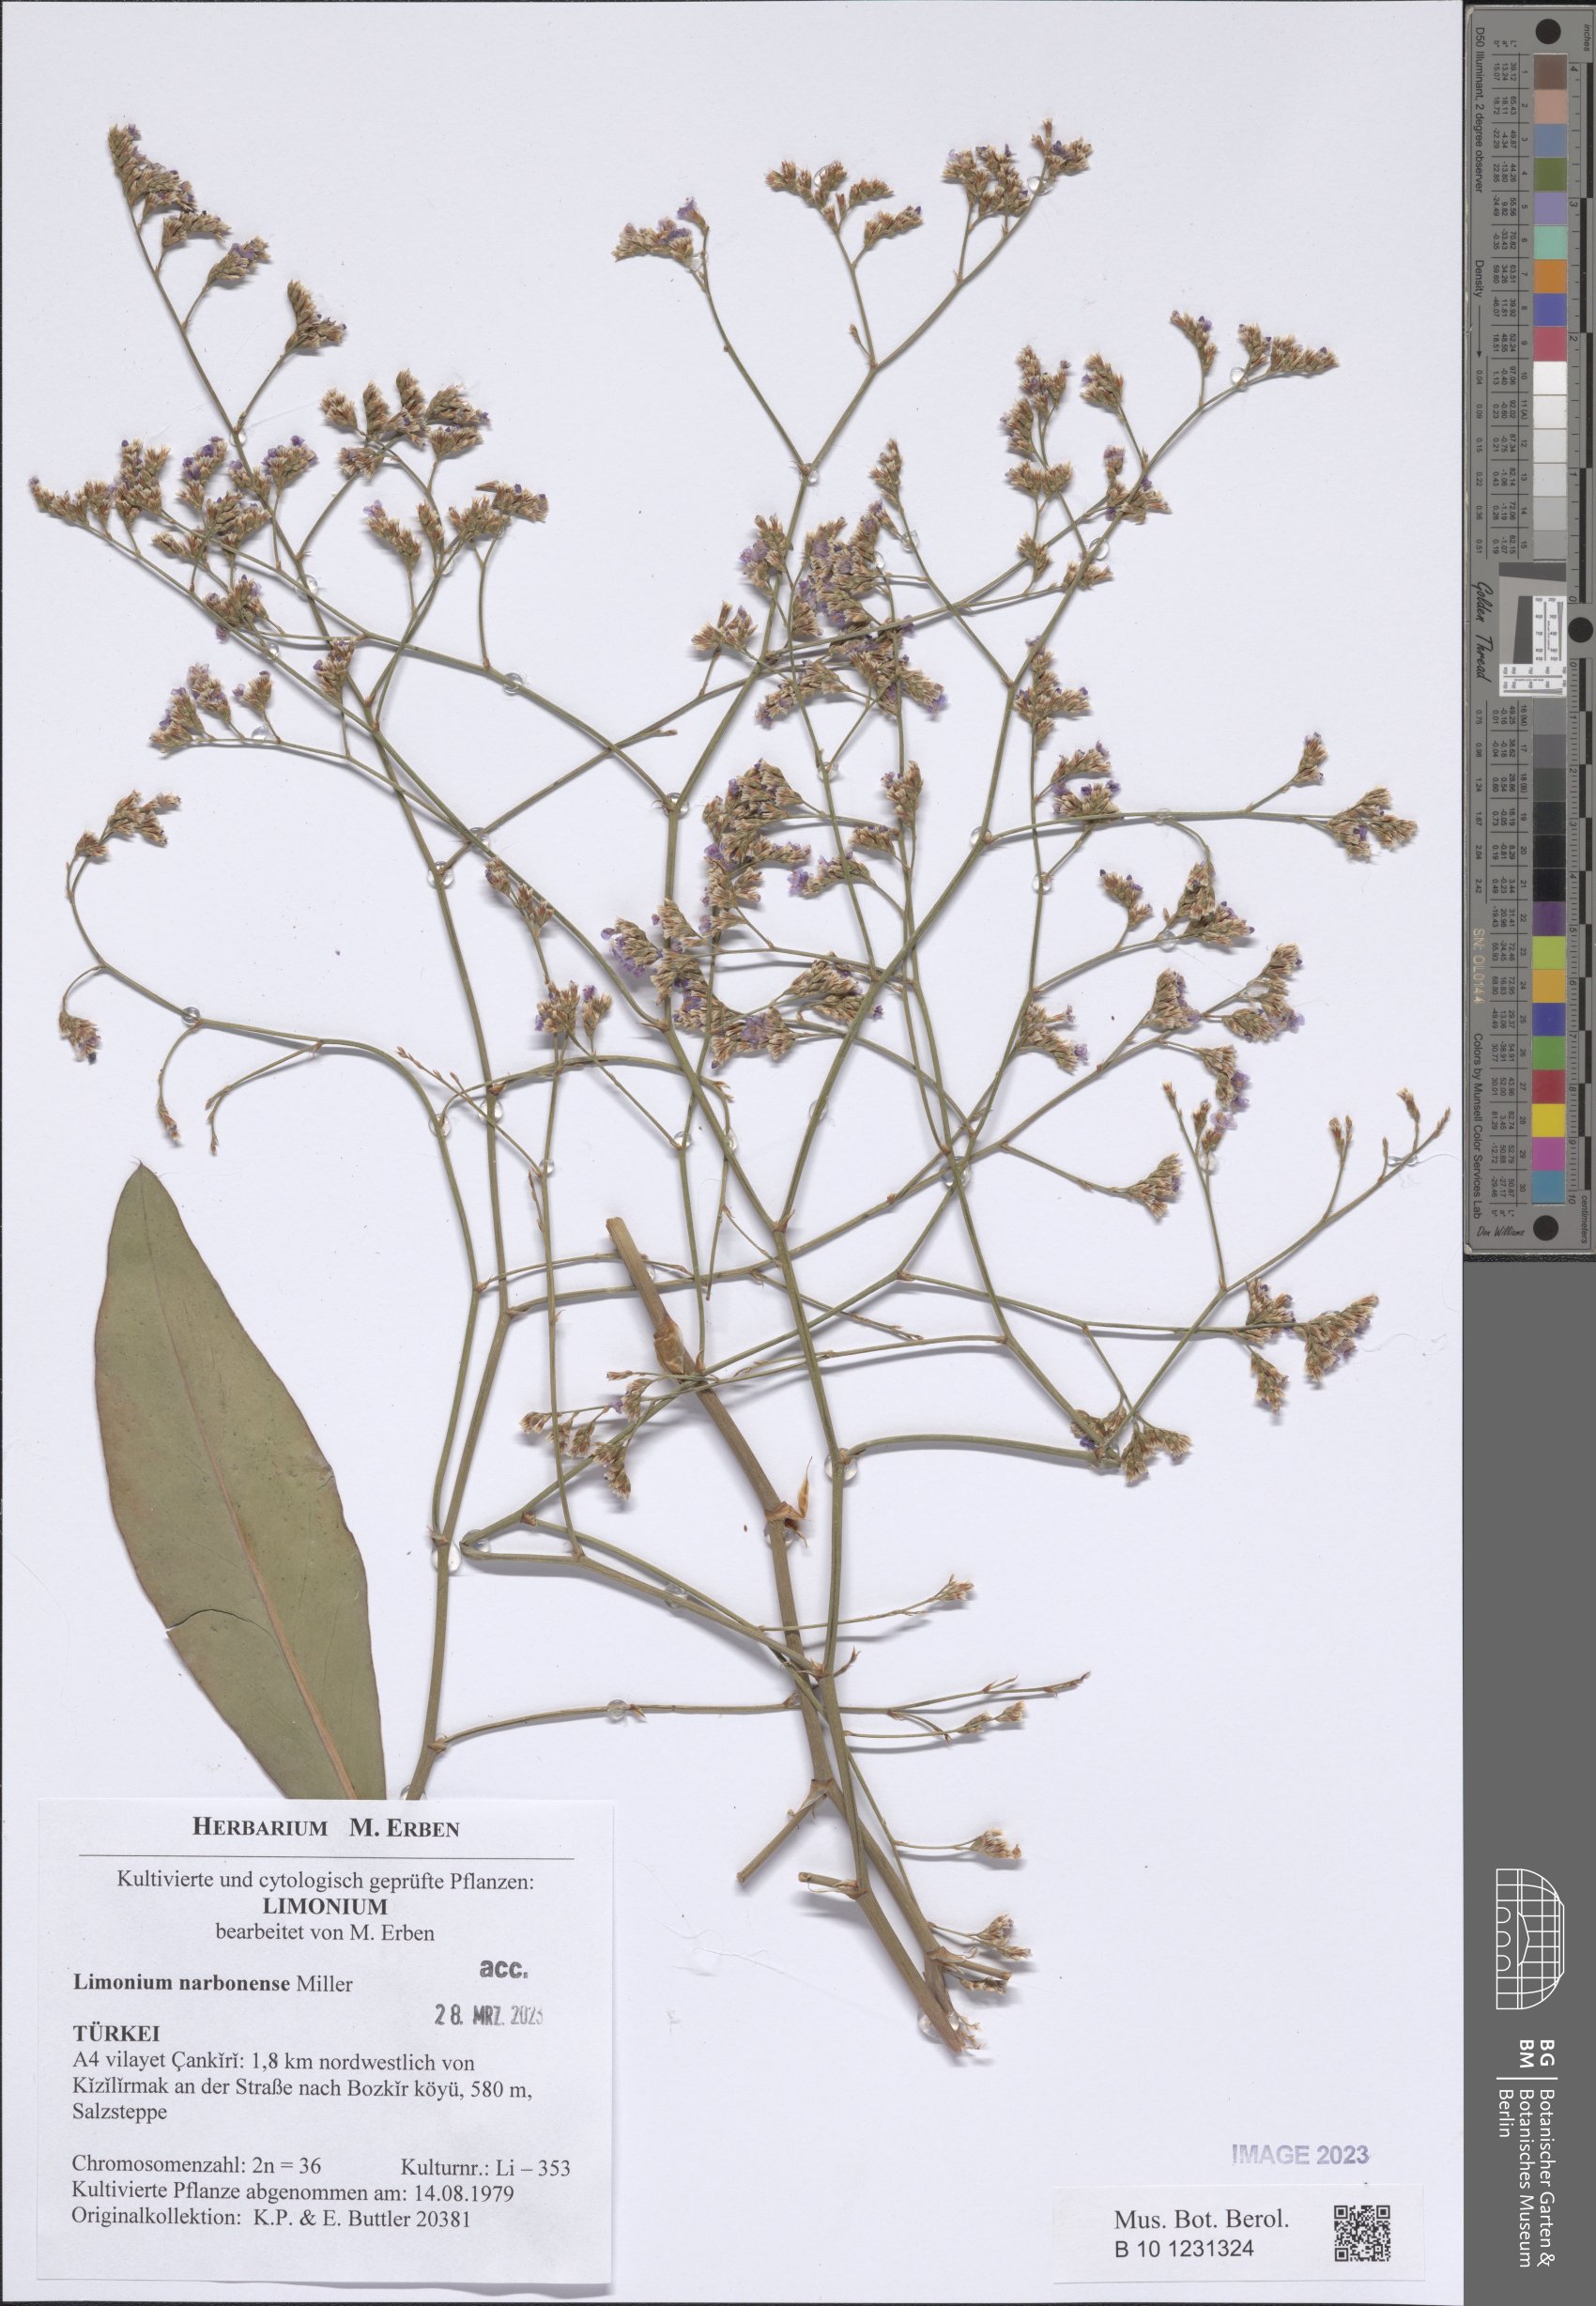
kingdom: Plantae
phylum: Tracheophyta
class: Magnoliopsida
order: Caryophyllales
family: Plumbaginaceae
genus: Limonium
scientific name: Limonium narbonense
